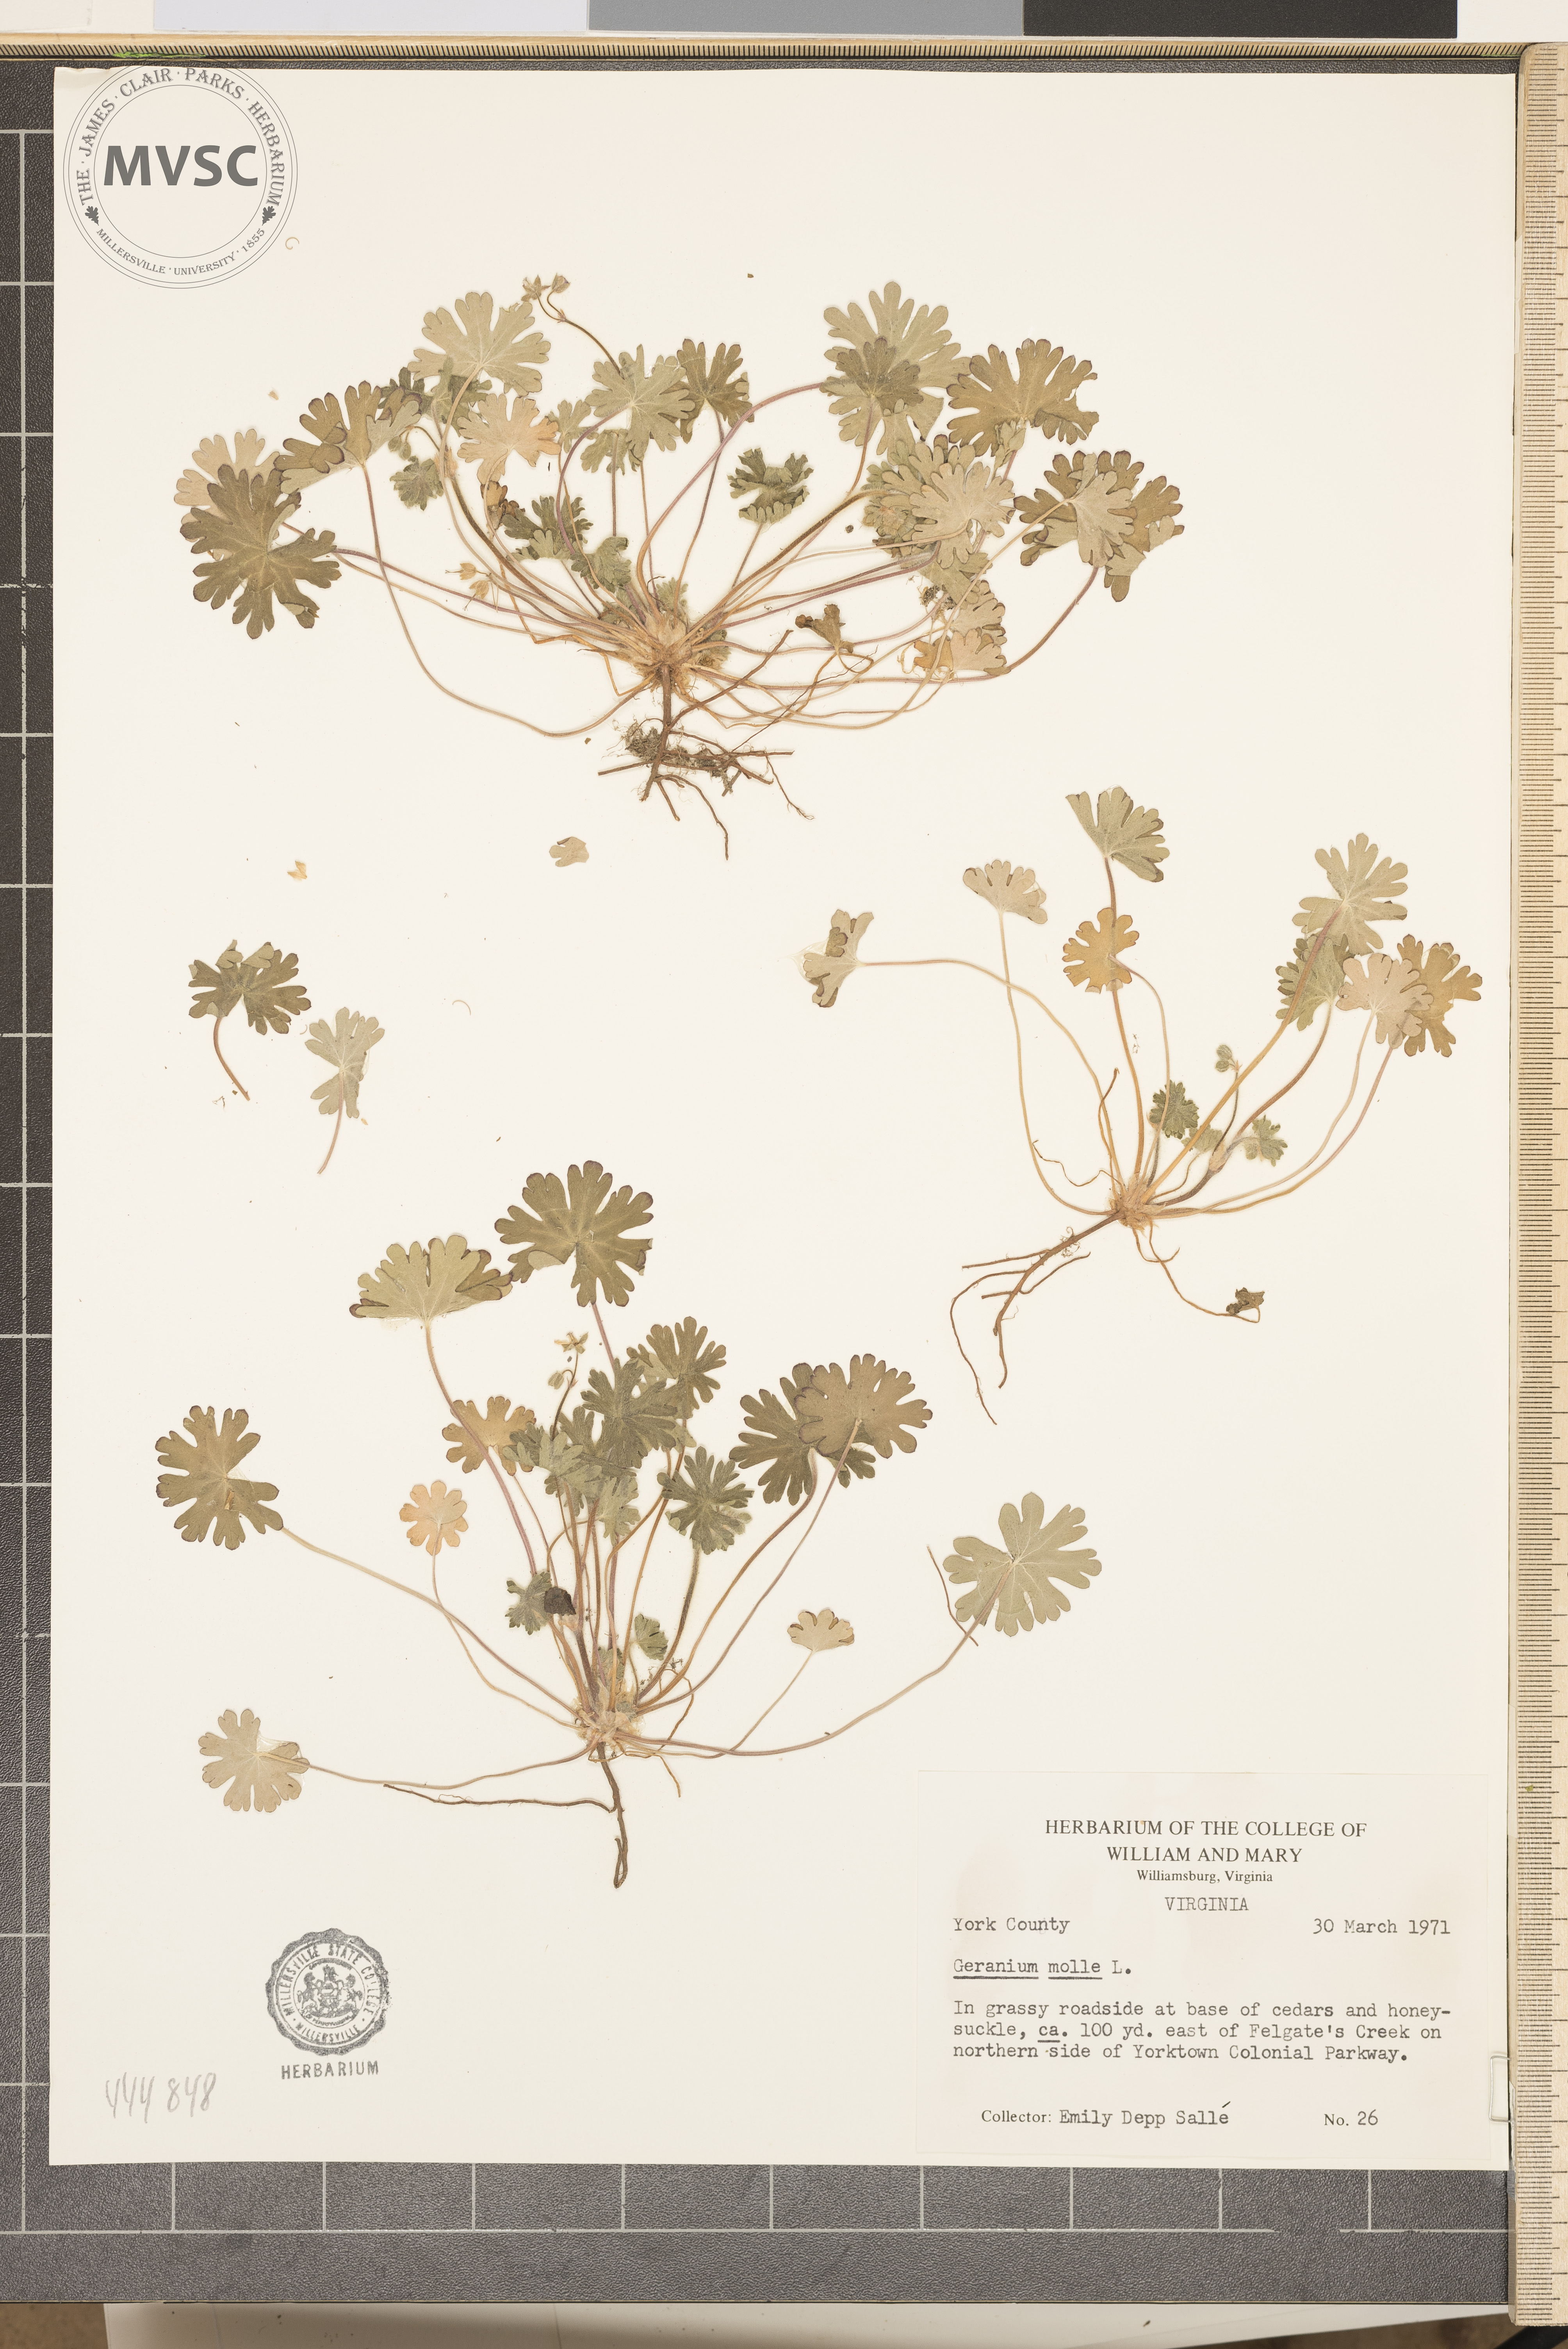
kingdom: Plantae
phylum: Tracheophyta
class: Magnoliopsida
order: Geraniales
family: Geraniaceae
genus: Geranium
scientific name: Geranium molle
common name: Dove's-foot crane's-bill
